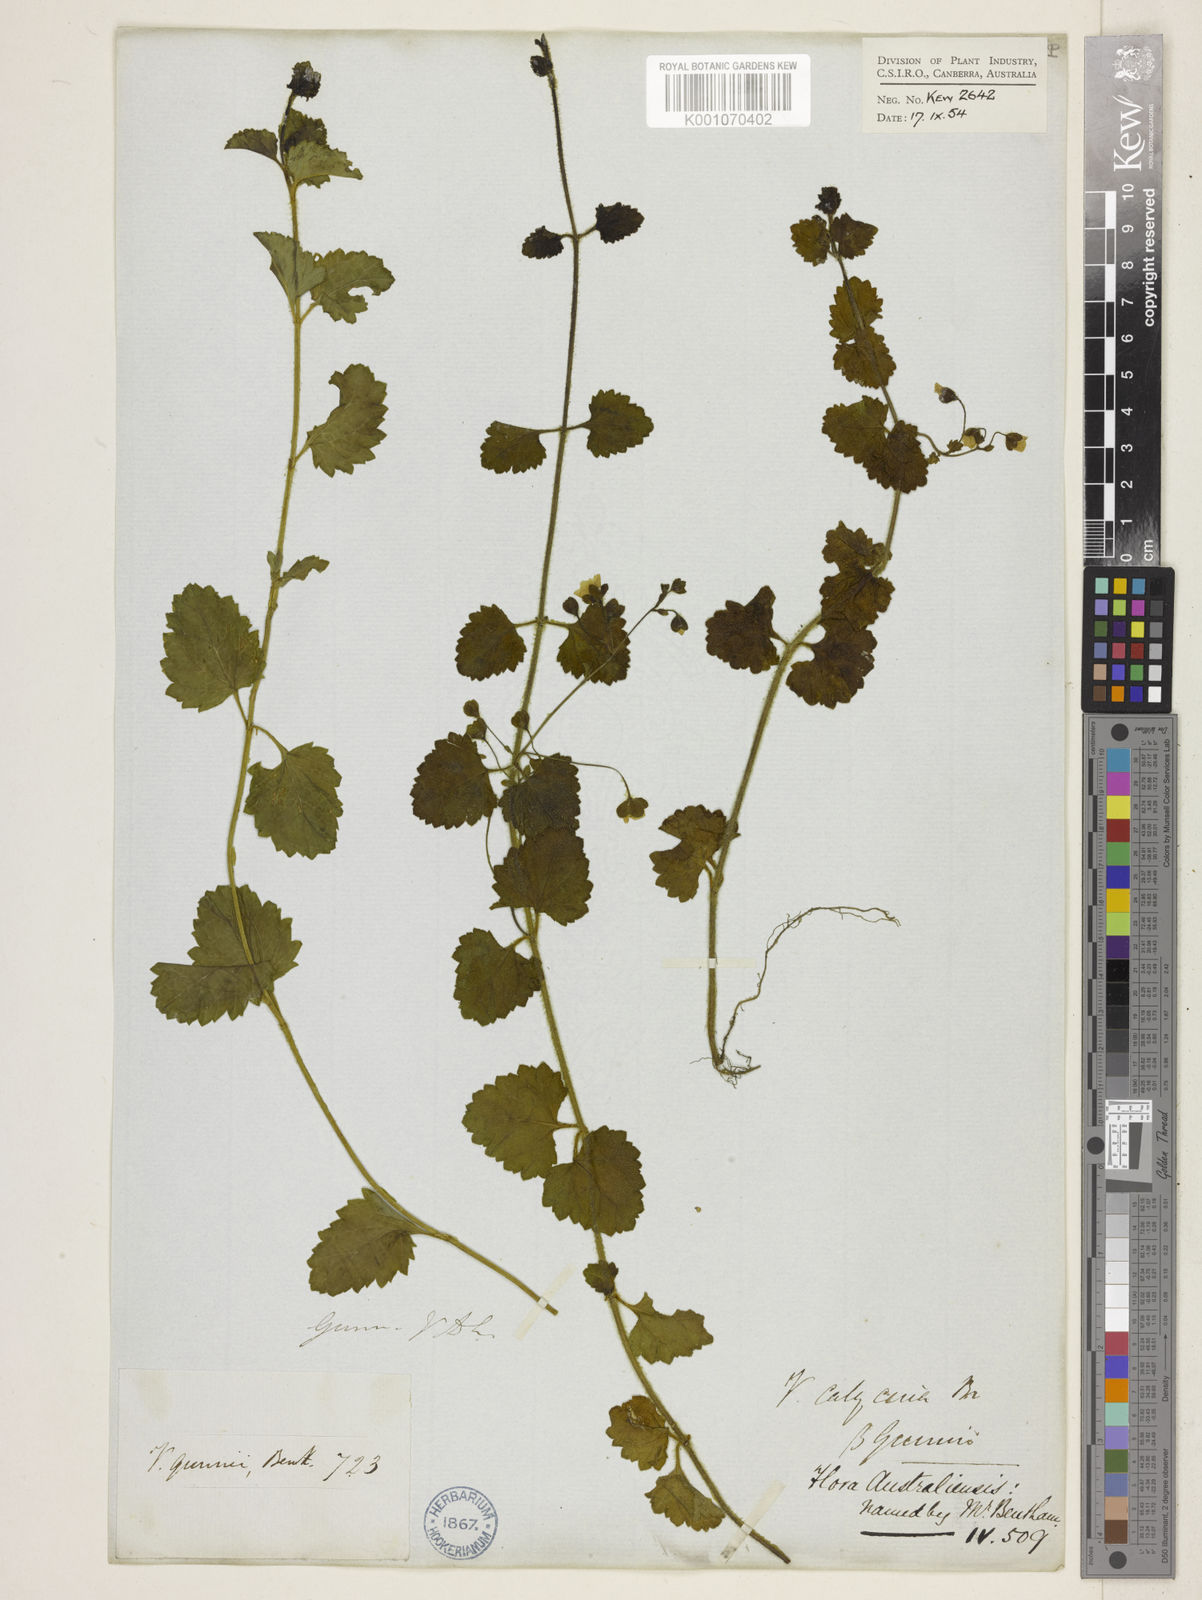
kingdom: Plantae
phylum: Tracheophyta
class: Magnoliopsida
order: Lamiales
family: Plantaginaceae
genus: Veronica
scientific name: Veronica calycina
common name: Cup speedwell
